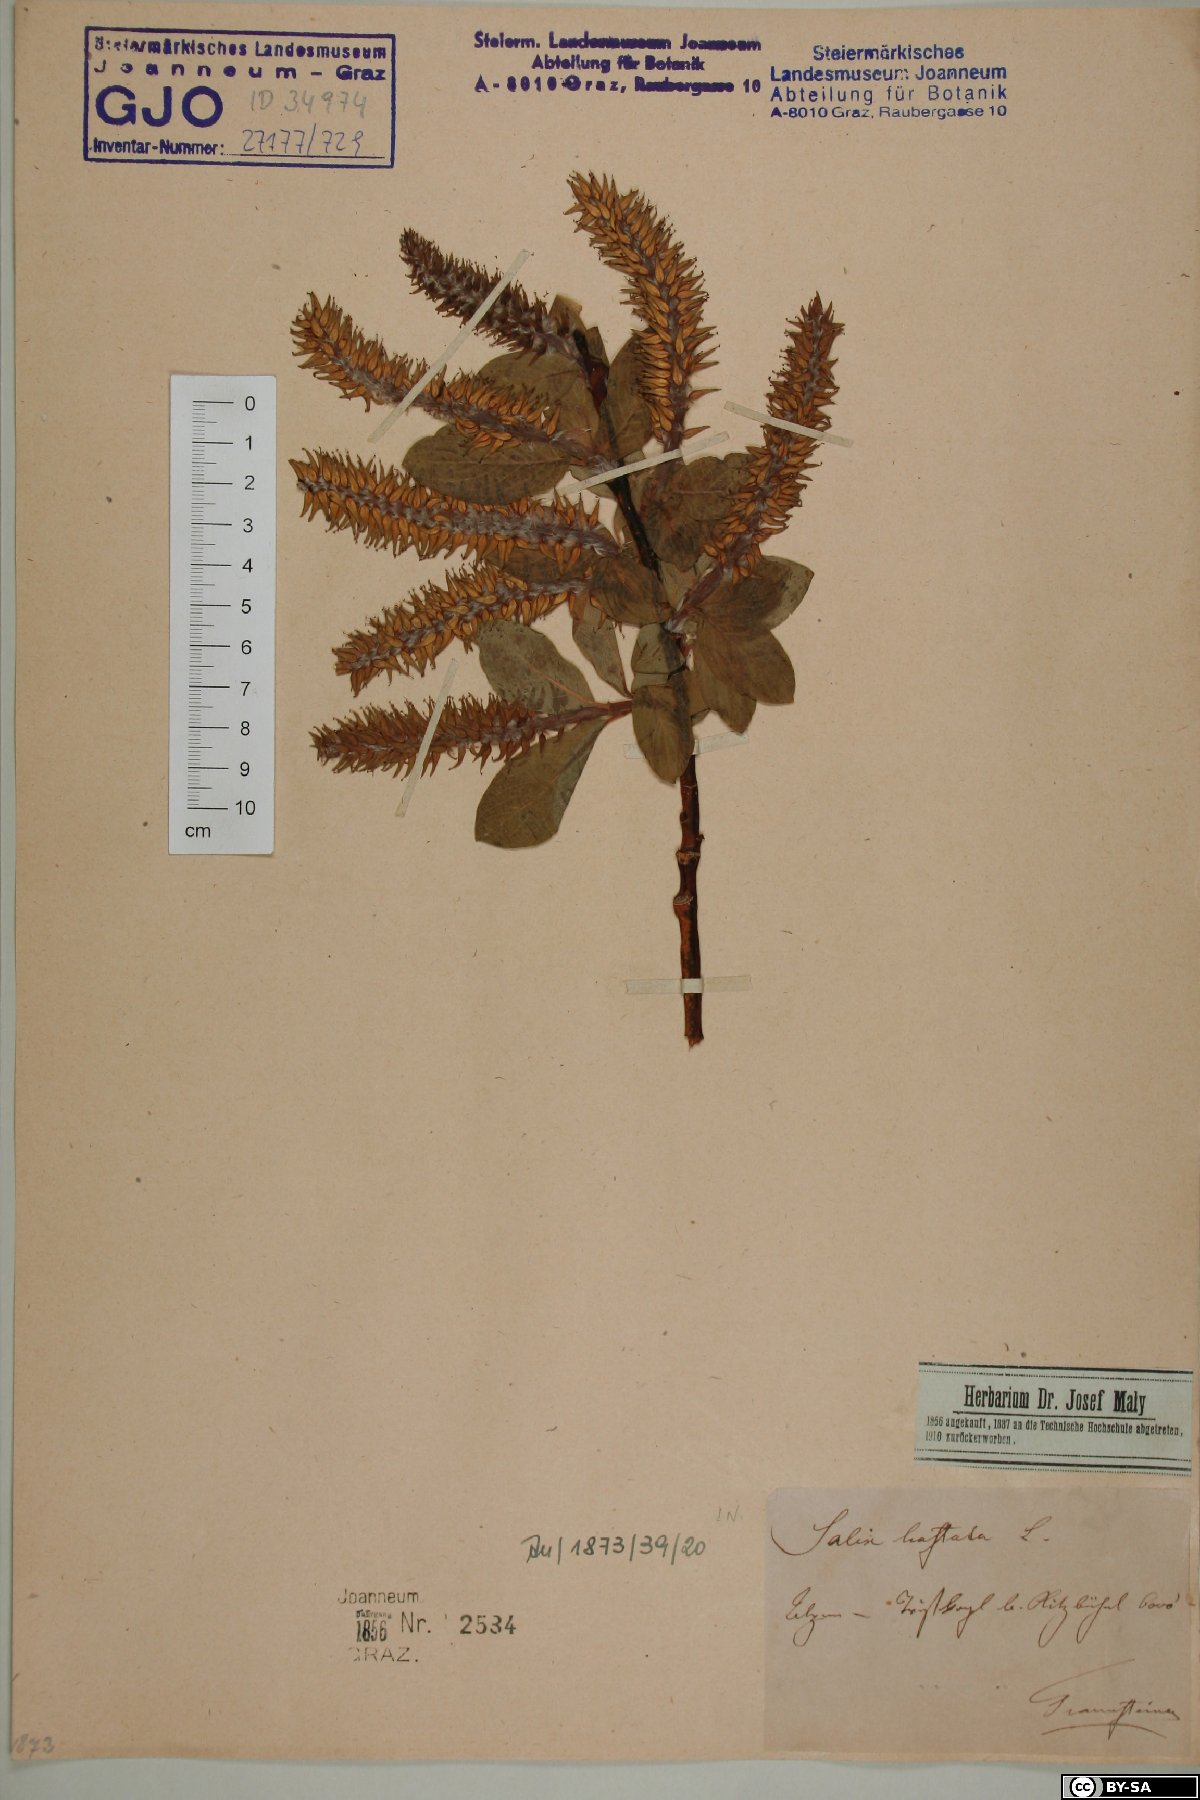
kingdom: Plantae
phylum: Tracheophyta
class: Magnoliopsida
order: Malpighiales
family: Salicaceae
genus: Salix
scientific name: Salix hastata
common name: Halberd willow
